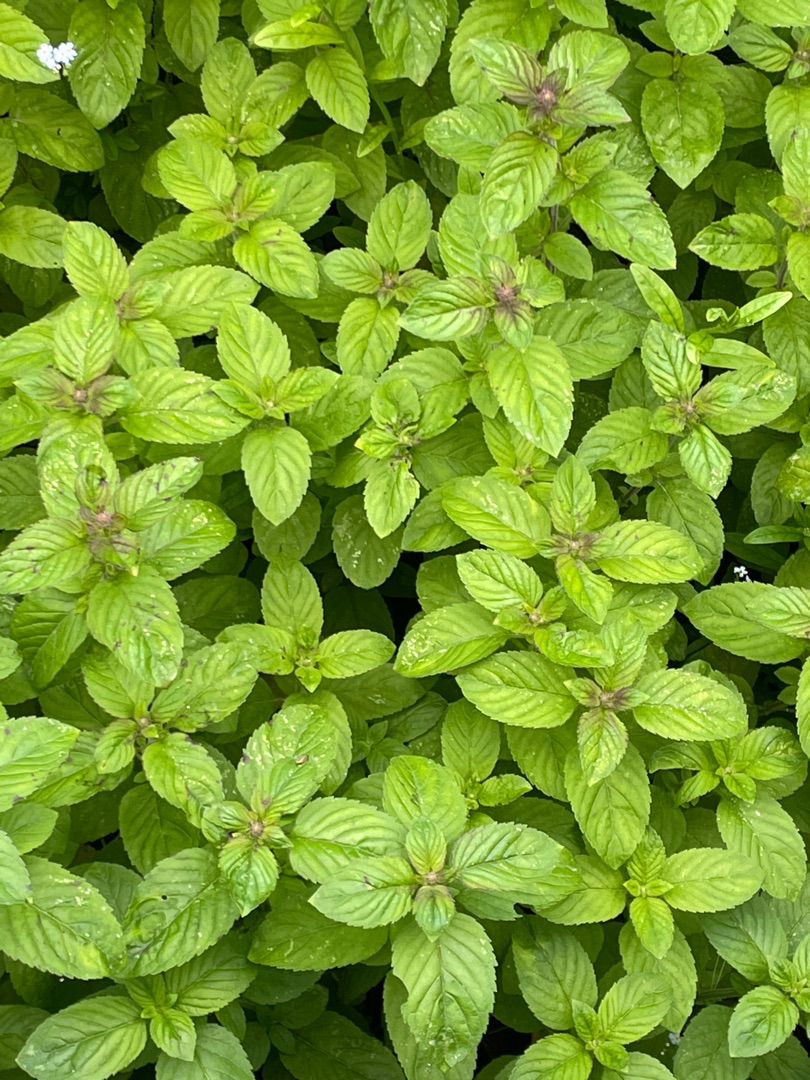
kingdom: Plantae
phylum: Tracheophyta
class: Magnoliopsida
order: Lamiales
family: Lamiaceae
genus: Mentha
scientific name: Mentha aquatica
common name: Vand-mynte
